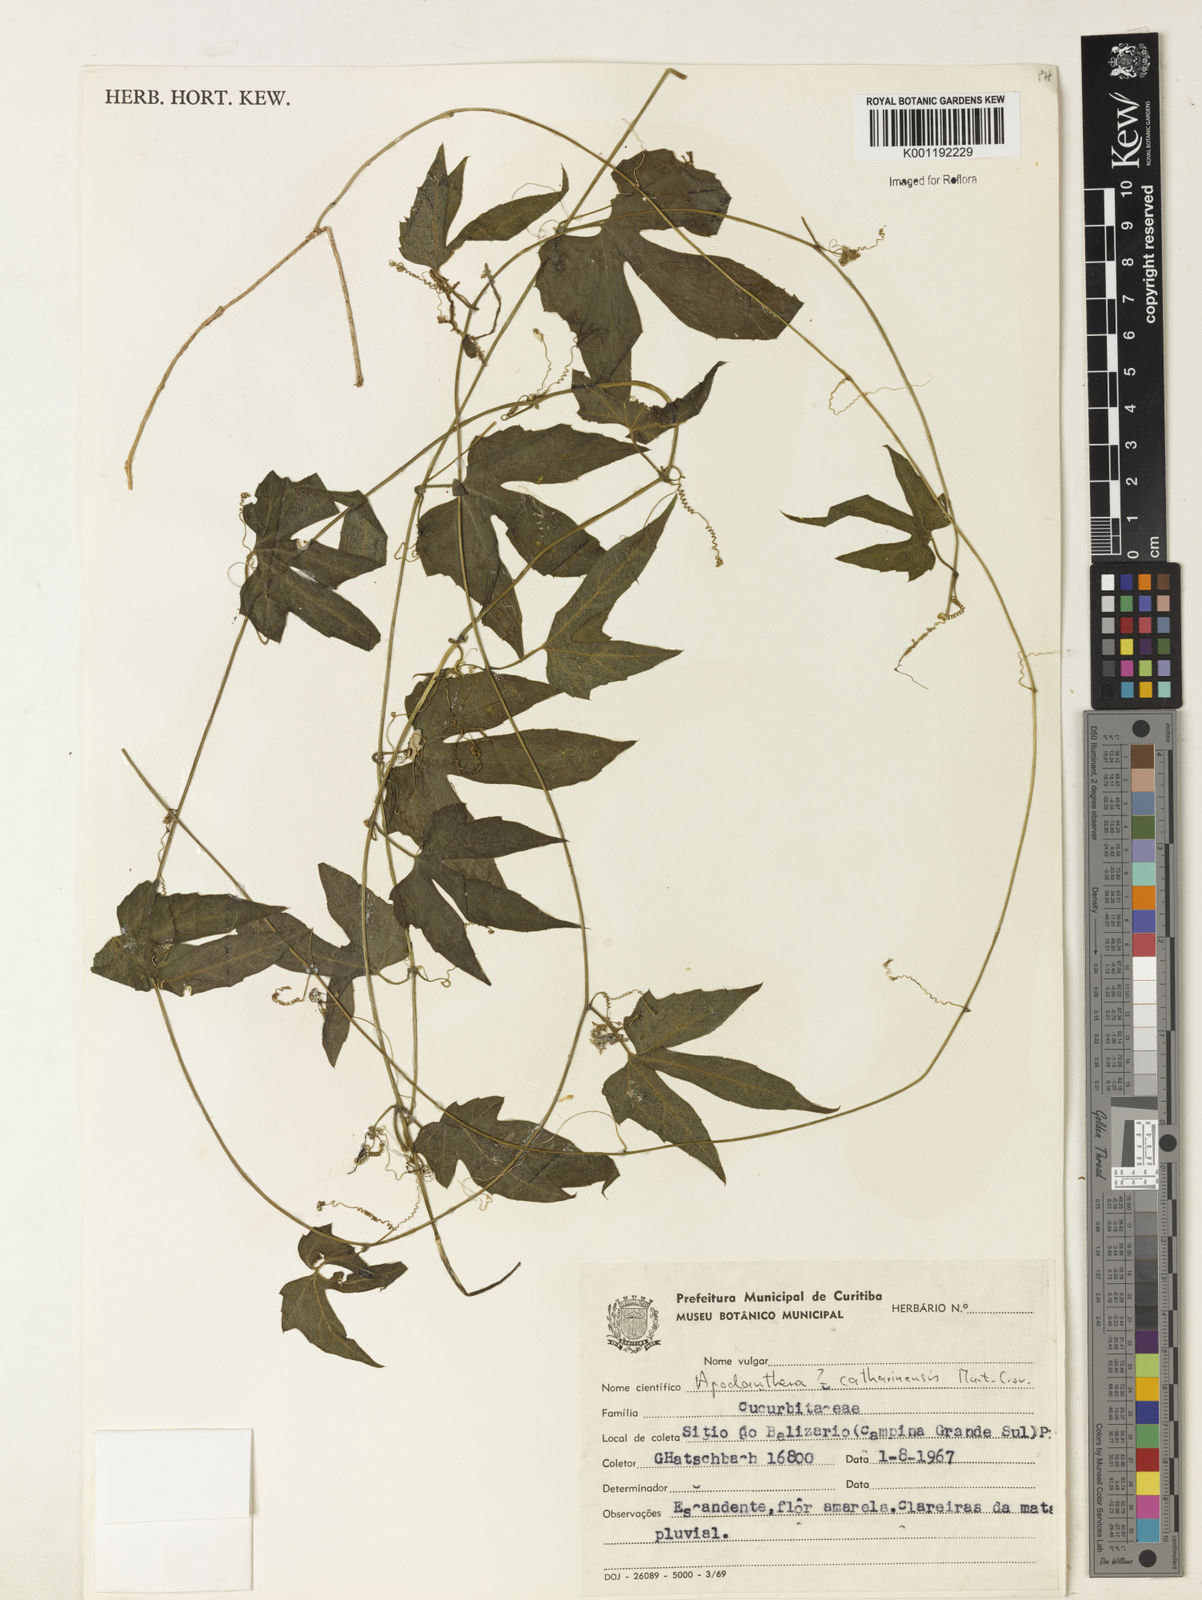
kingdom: Plantae
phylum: Tracheophyta
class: Magnoliopsida
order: Cucurbitales
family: Cucurbitaceae
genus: Apodanthera
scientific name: Apodanthera catharinensis
